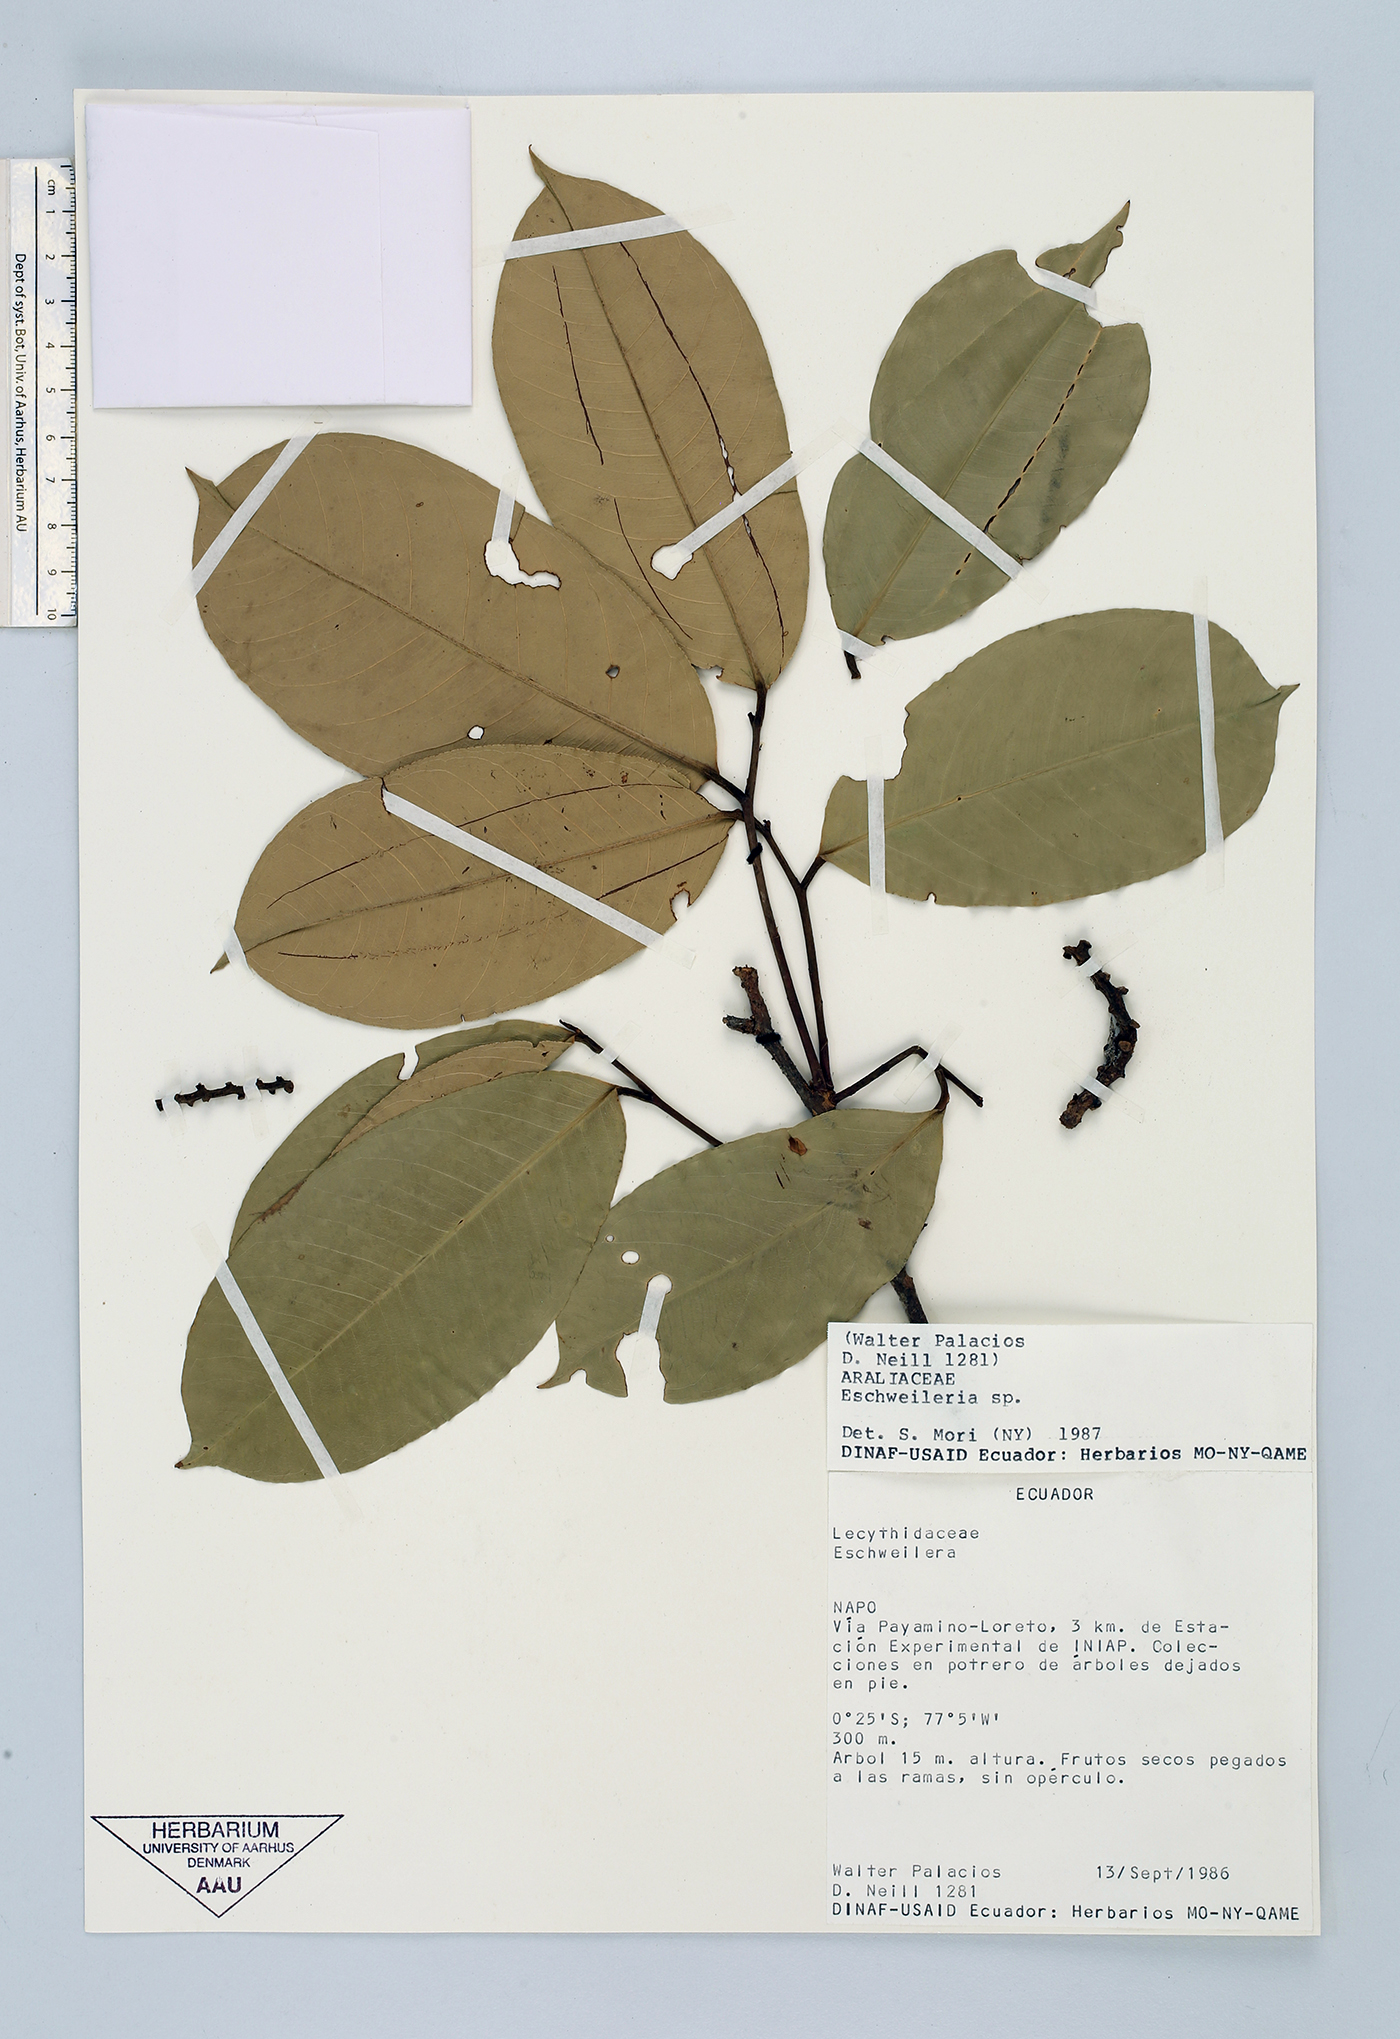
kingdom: Plantae
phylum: Tracheophyta
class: Magnoliopsida
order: Ericales
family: Lecythidaceae
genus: Eschweilera
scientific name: Eschweilera
